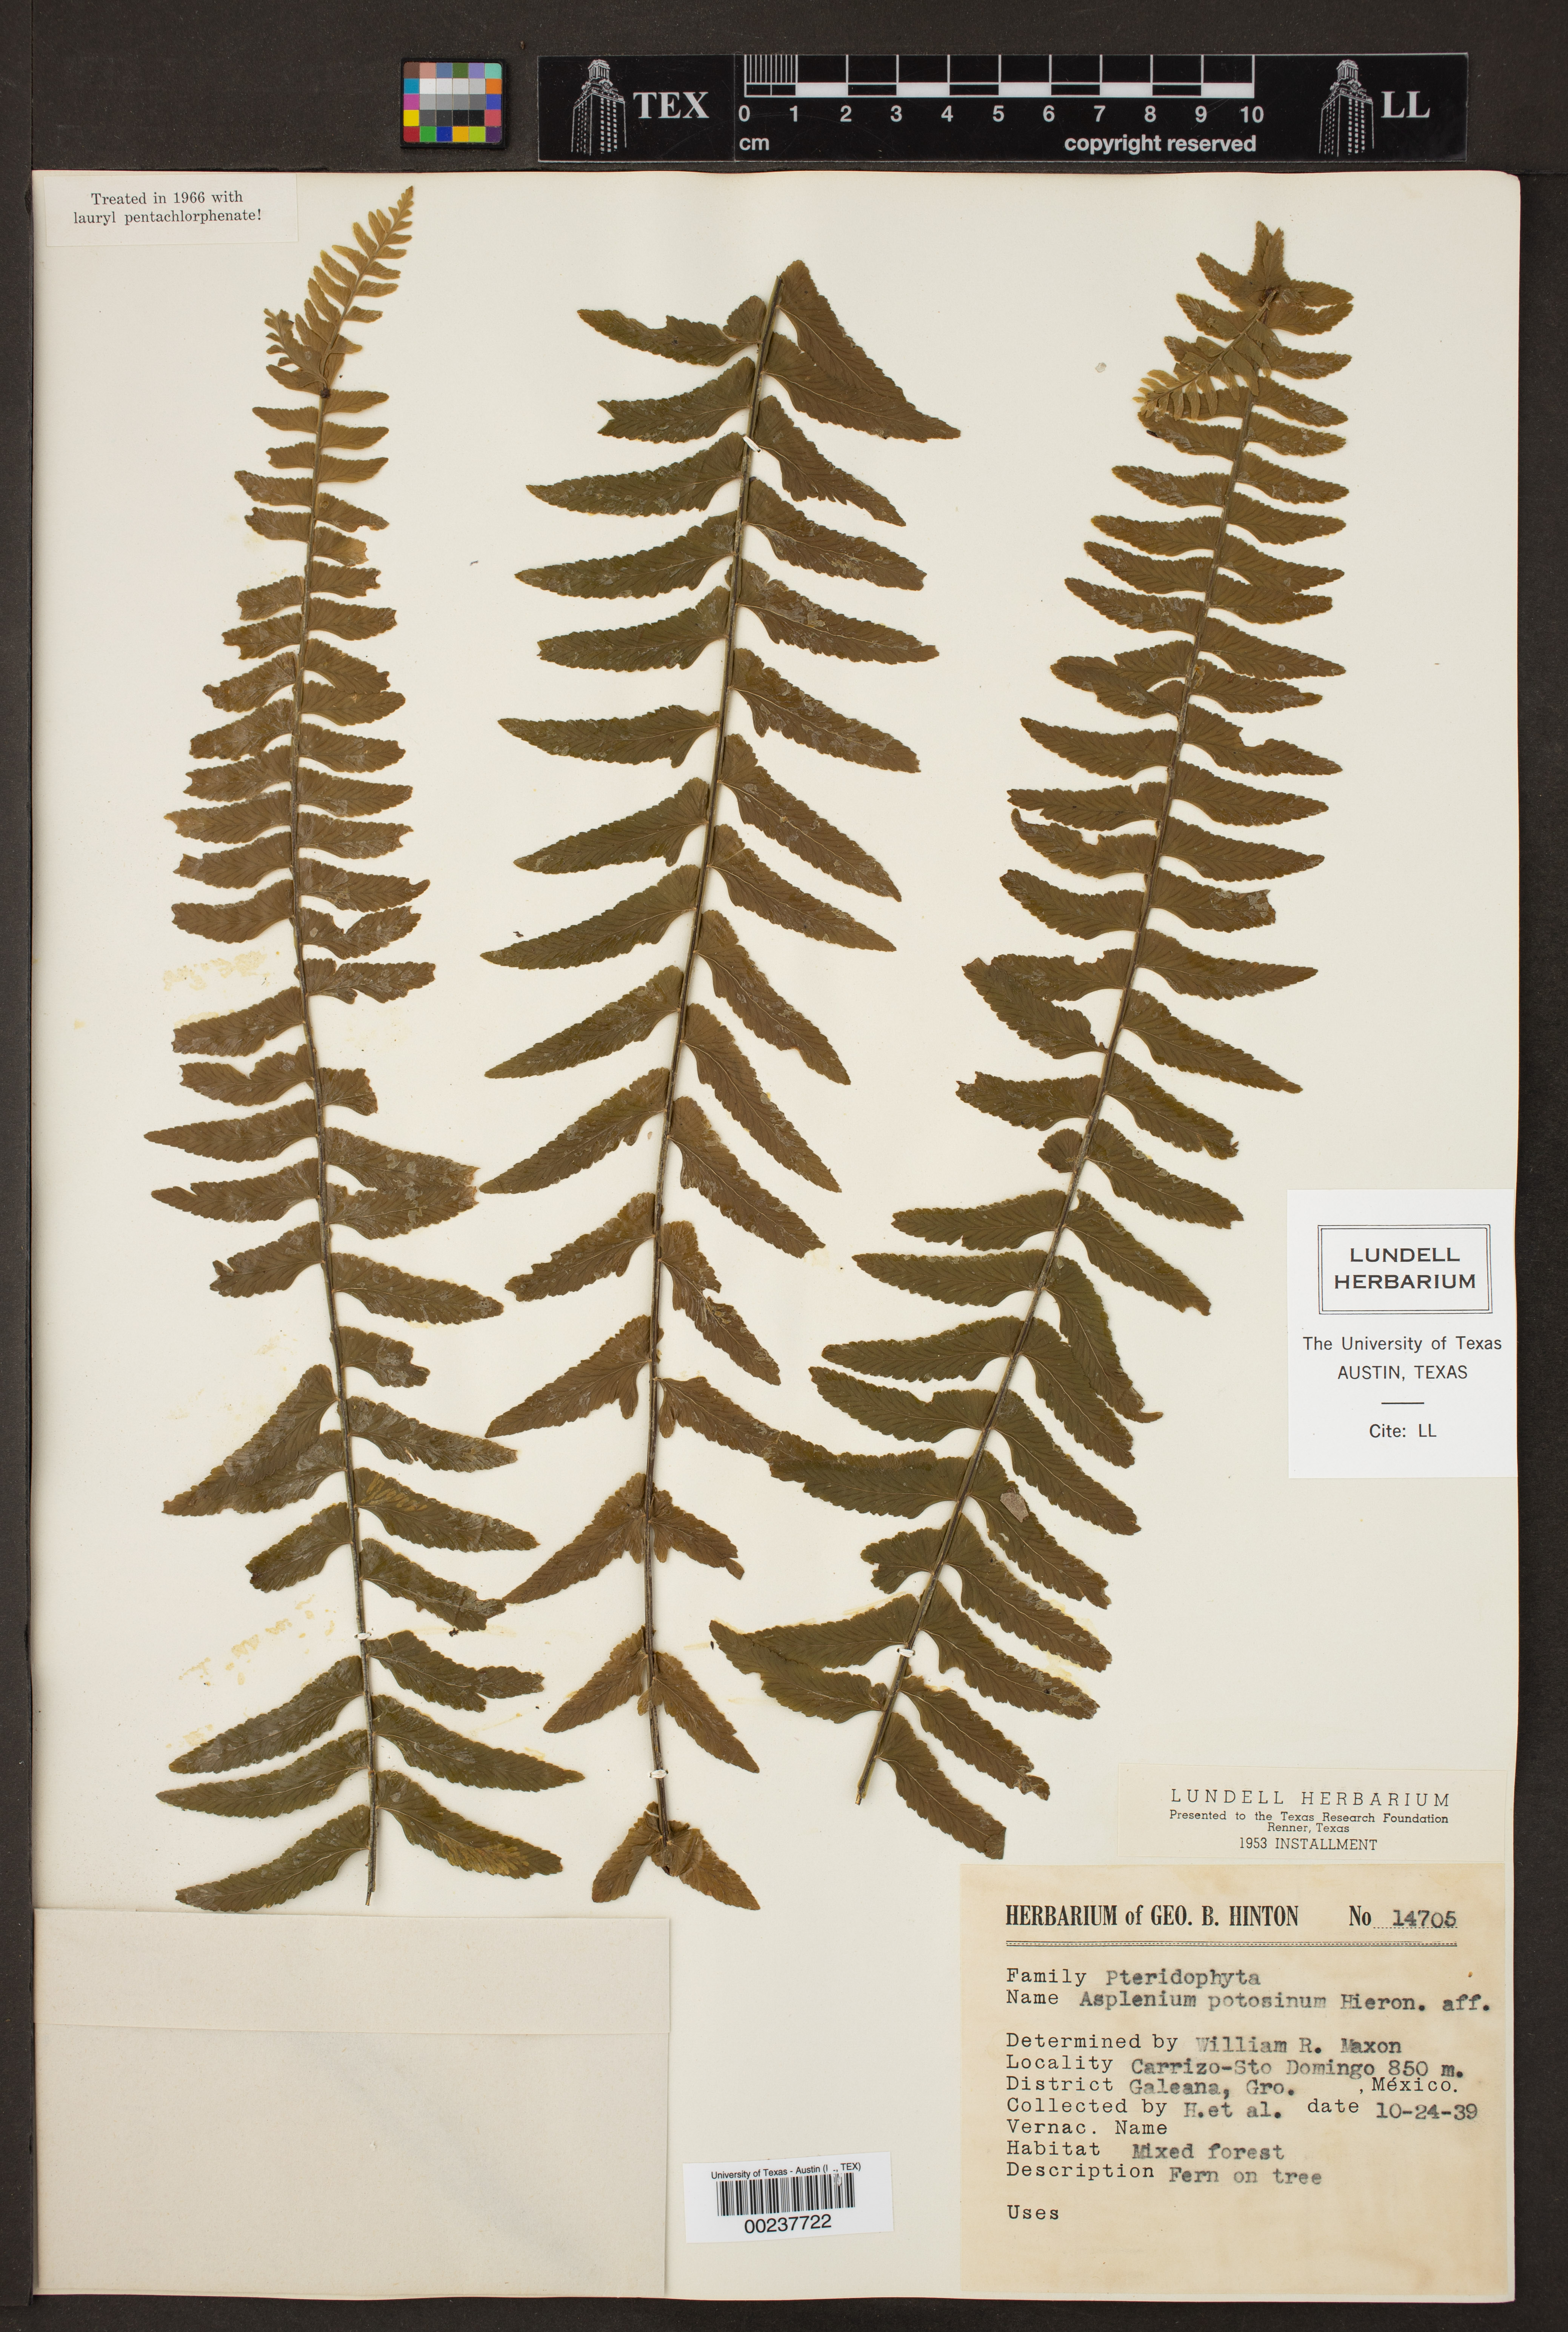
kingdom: Plantae
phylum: Tracheophyta
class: Polypodiopsida
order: Polypodiales
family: Aspleniaceae
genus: Asplenium
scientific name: Asplenium potosinum
